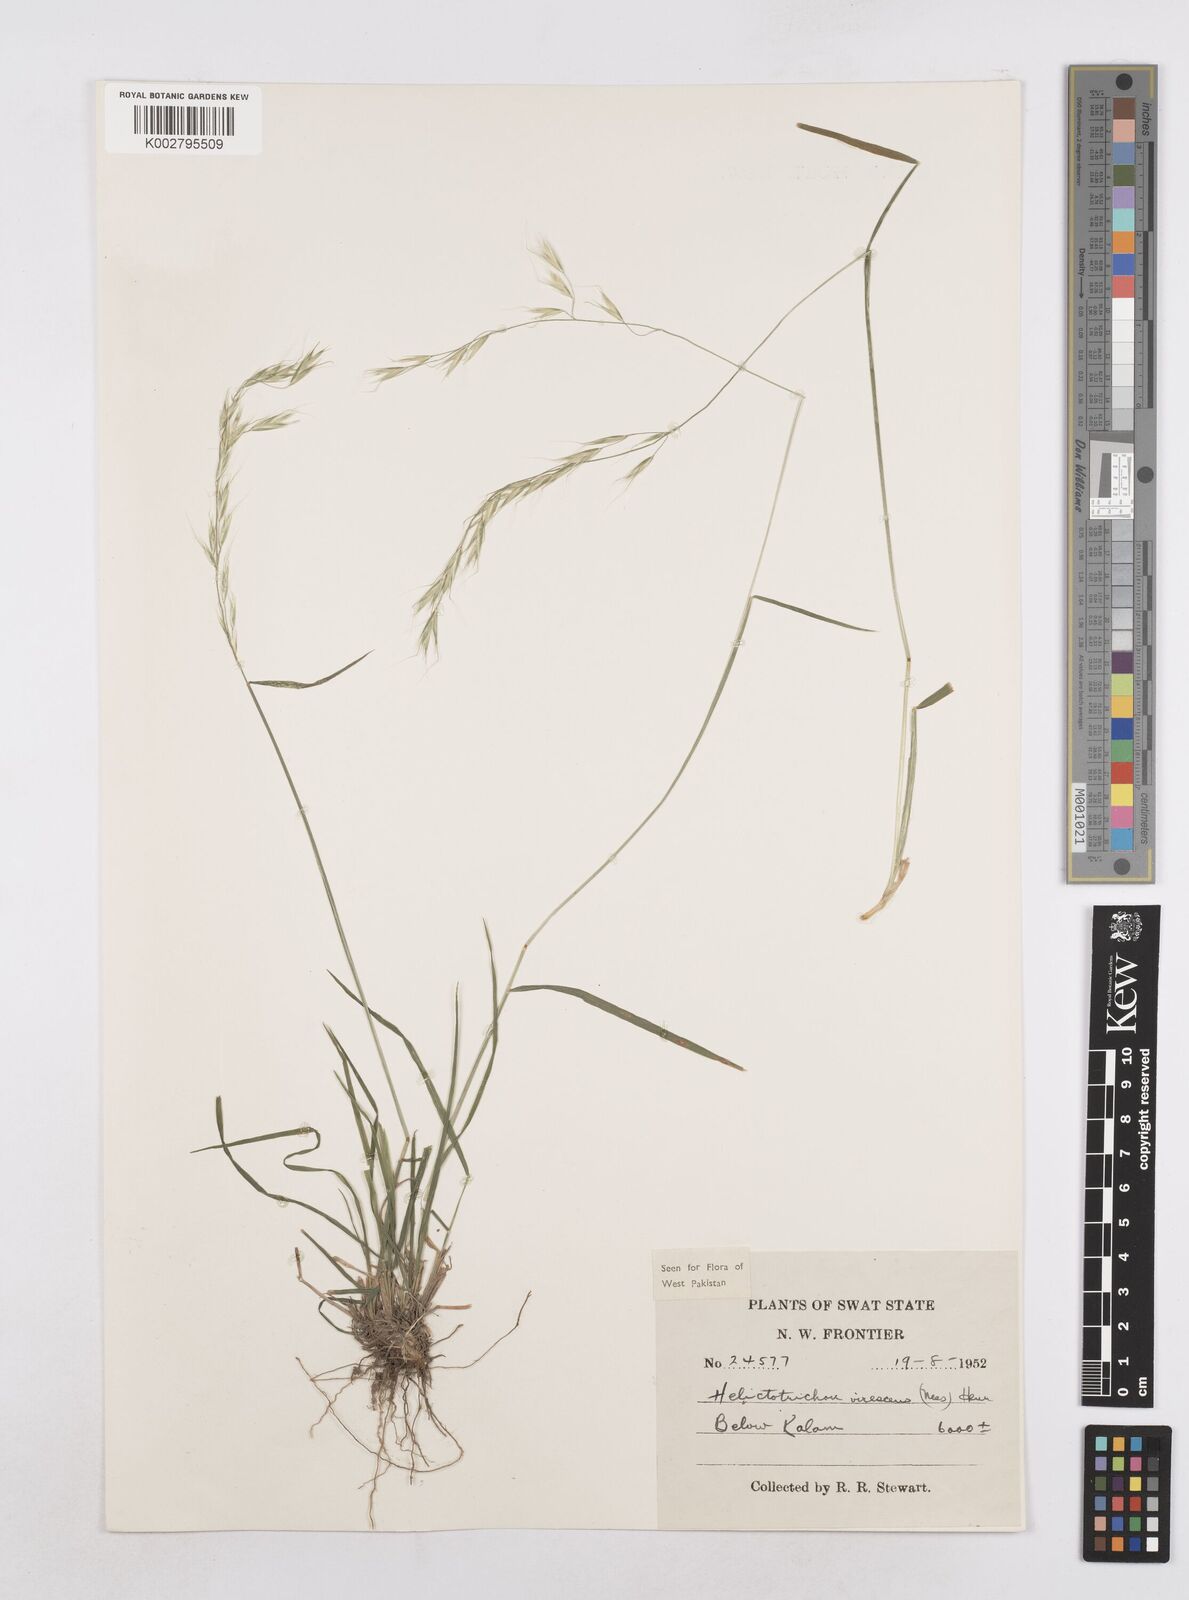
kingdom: Plantae
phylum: Tracheophyta
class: Liliopsida
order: Poales
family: Poaceae
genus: Trisetopsis
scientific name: Trisetopsis junghuhnii
